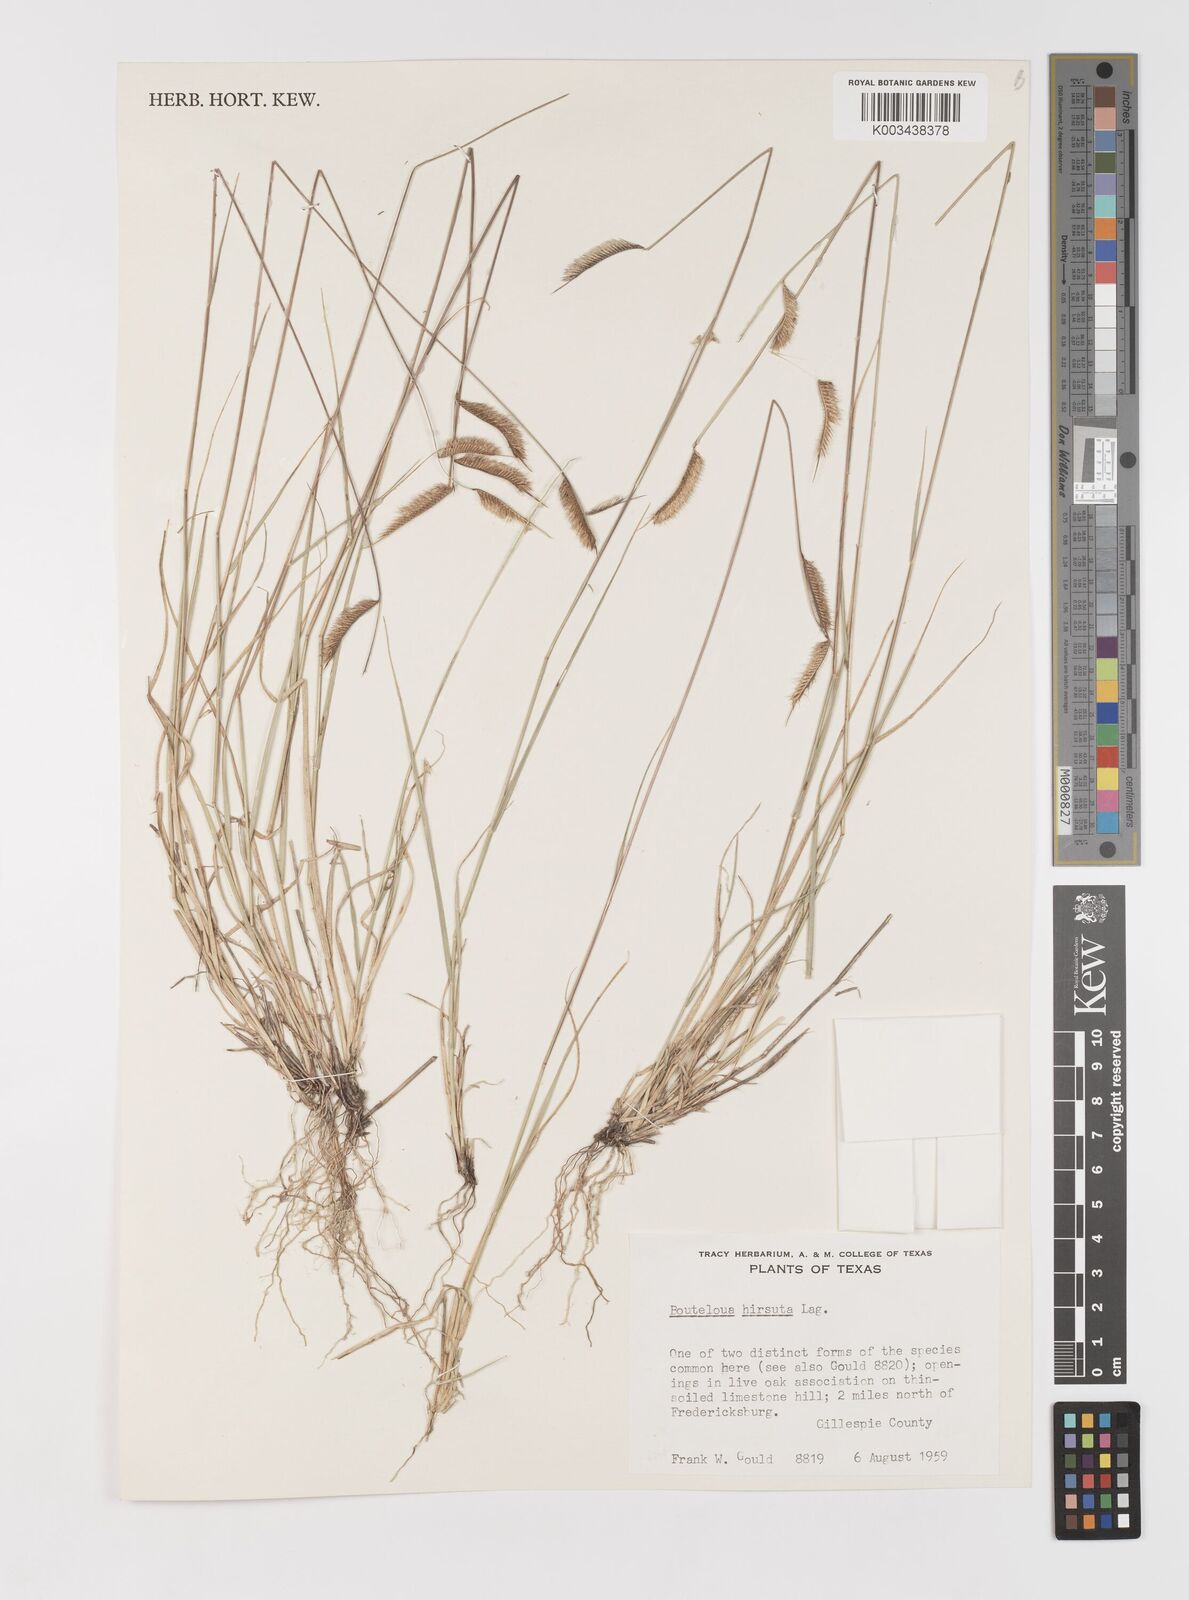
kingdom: Plantae
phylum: Tracheophyta
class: Liliopsida
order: Poales
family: Poaceae
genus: Bouteloua
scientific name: Bouteloua hirsuta
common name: Hairy grama
